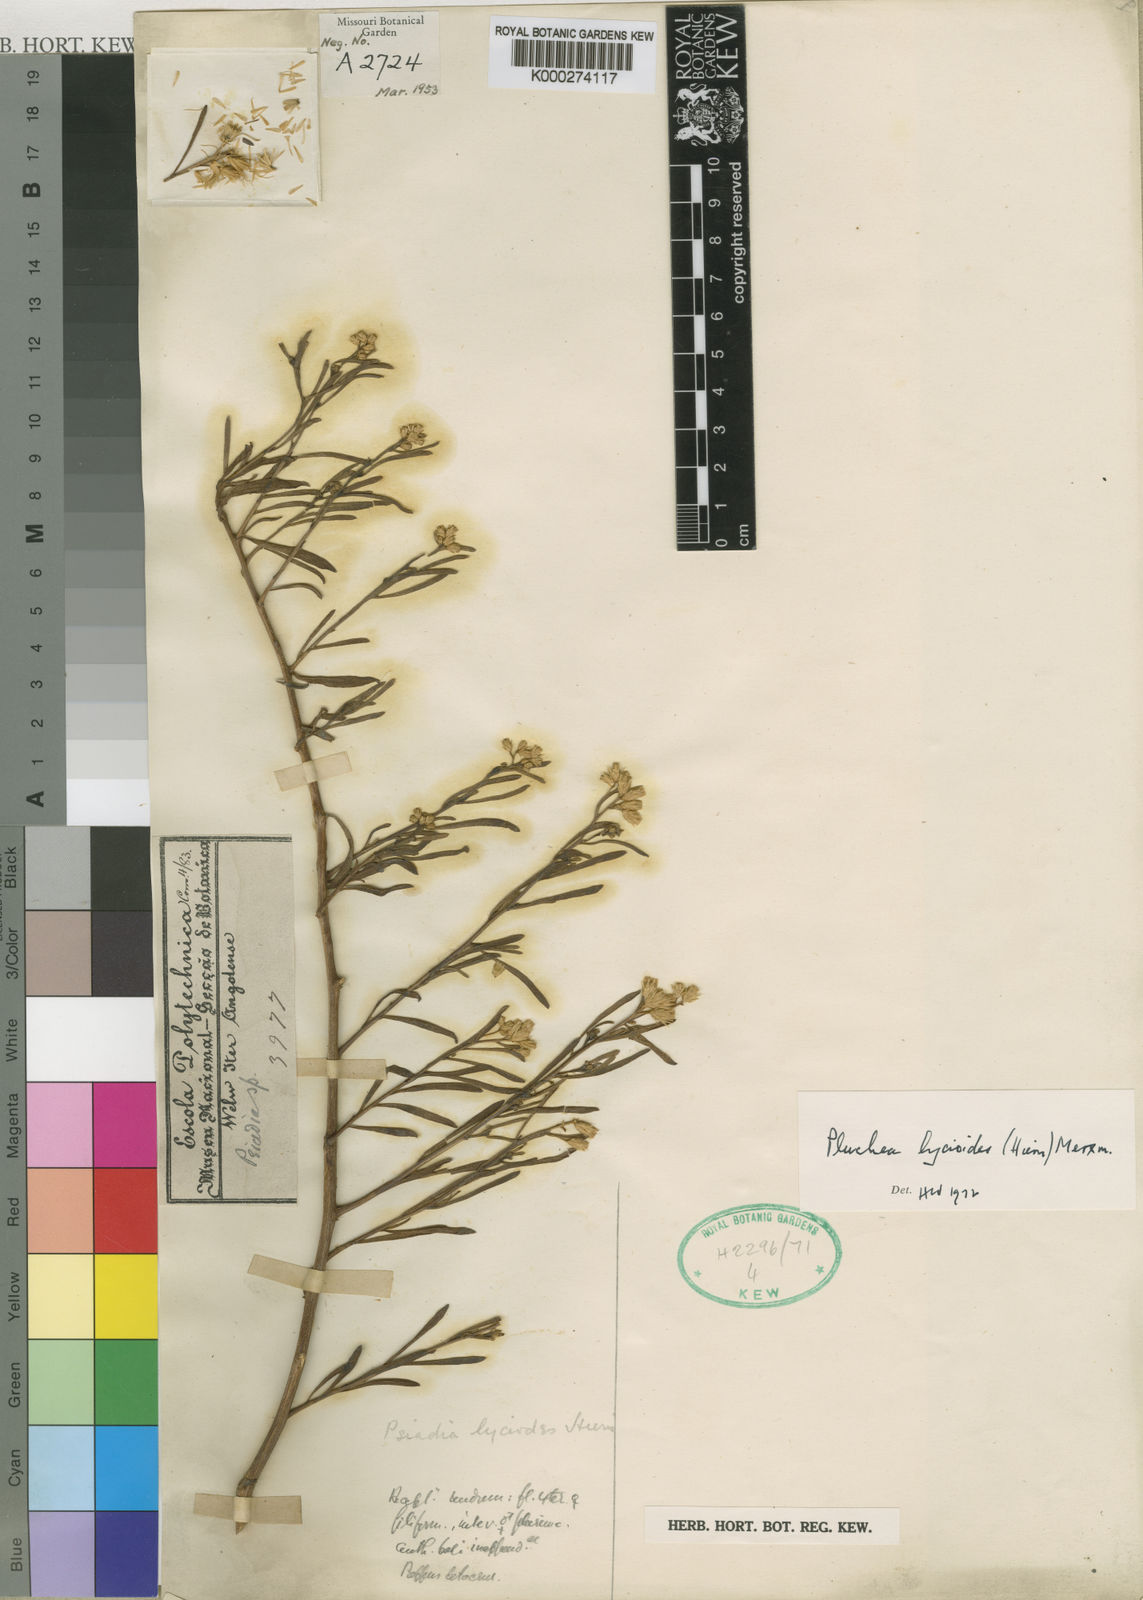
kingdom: Plantae
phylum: Tracheophyta
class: Magnoliopsida
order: Asterales
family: Asteraceae
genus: Pluchea
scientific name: Pluchea lycioides
